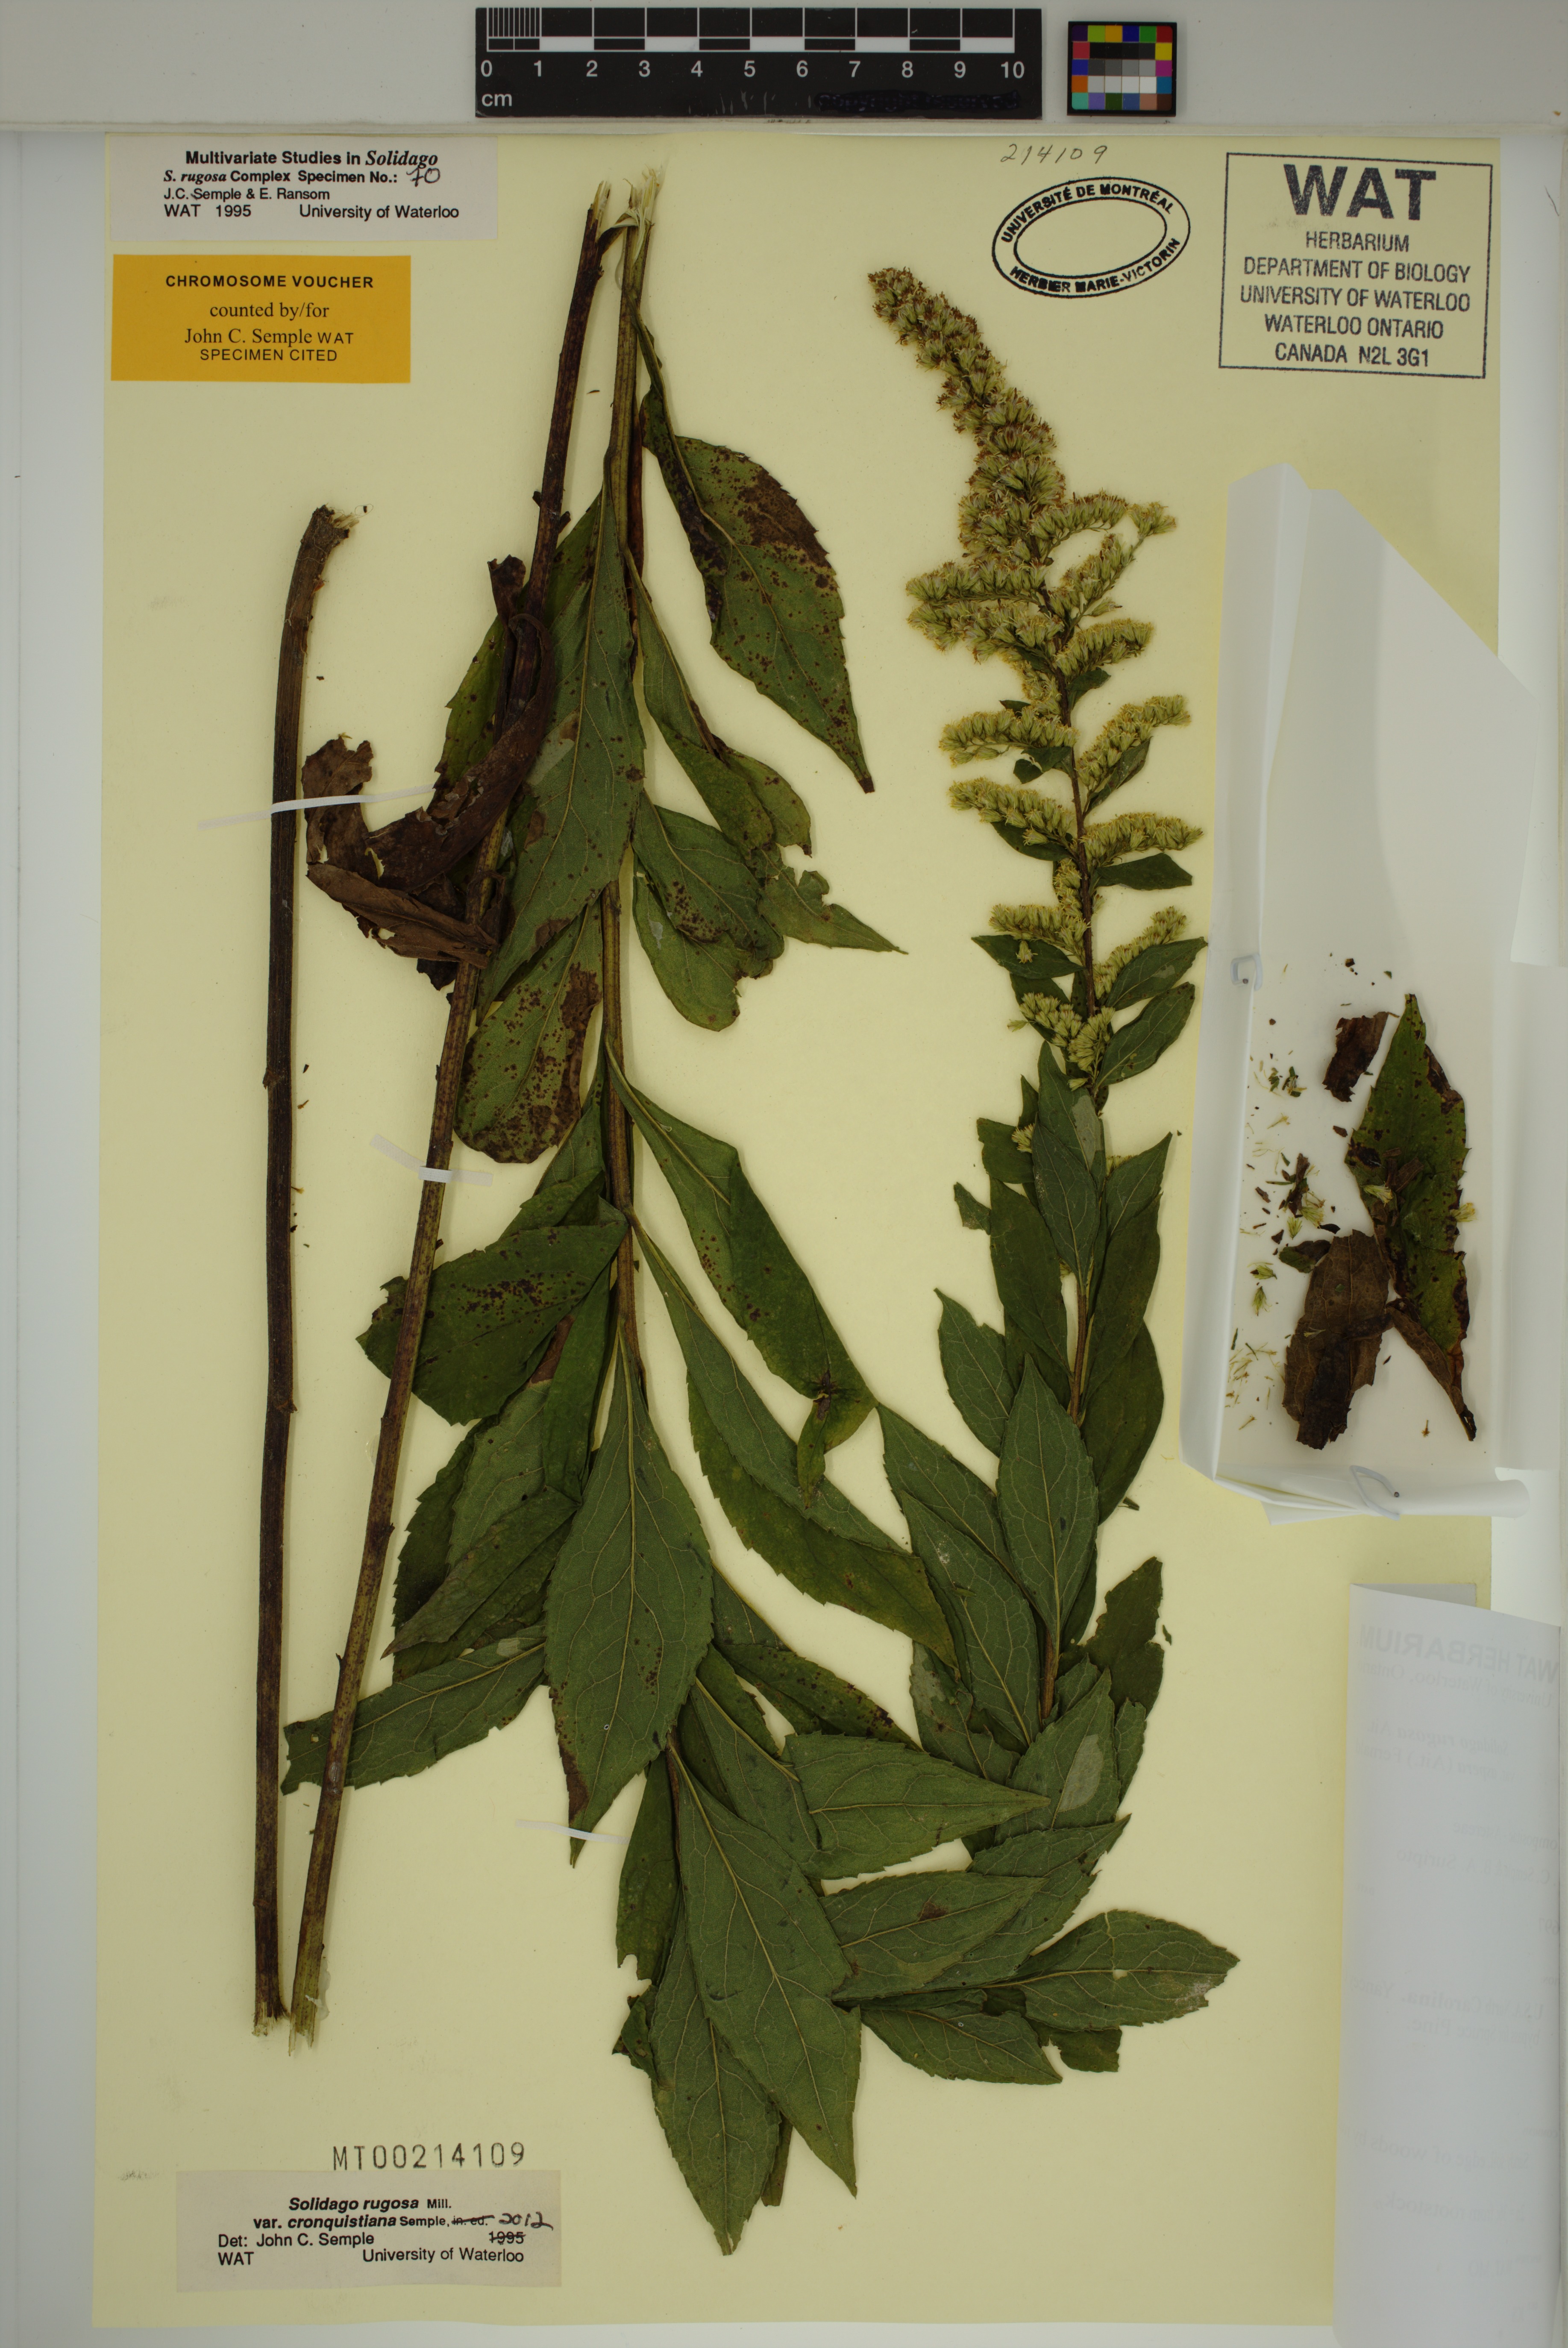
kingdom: Plantae
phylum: Tracheophyta
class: Magnoliopsida
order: Asterales
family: Asteraceae
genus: Solidago
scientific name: Solidago rugosa
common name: Rough-stemmed goldenrod
